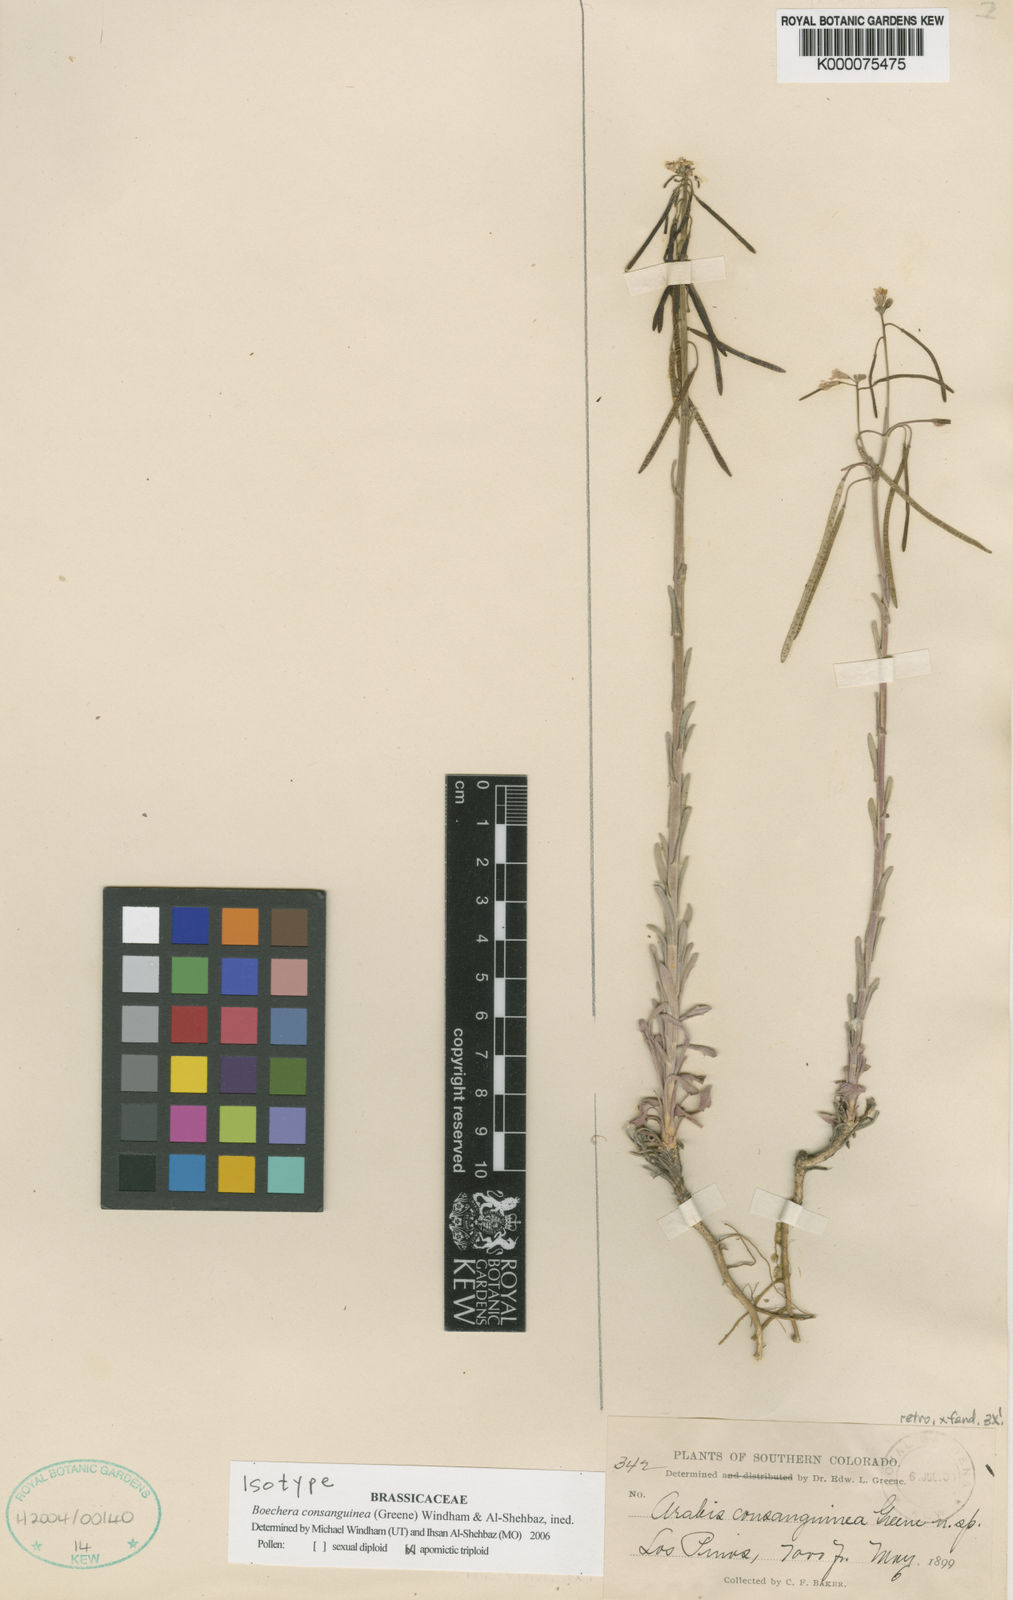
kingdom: Plantae
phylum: Tracheophyta
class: Magnoliopsida
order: Brassicales
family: Brassicaceae
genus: Boechera
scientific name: Boechera consanguinea
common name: Four corners rockcress
